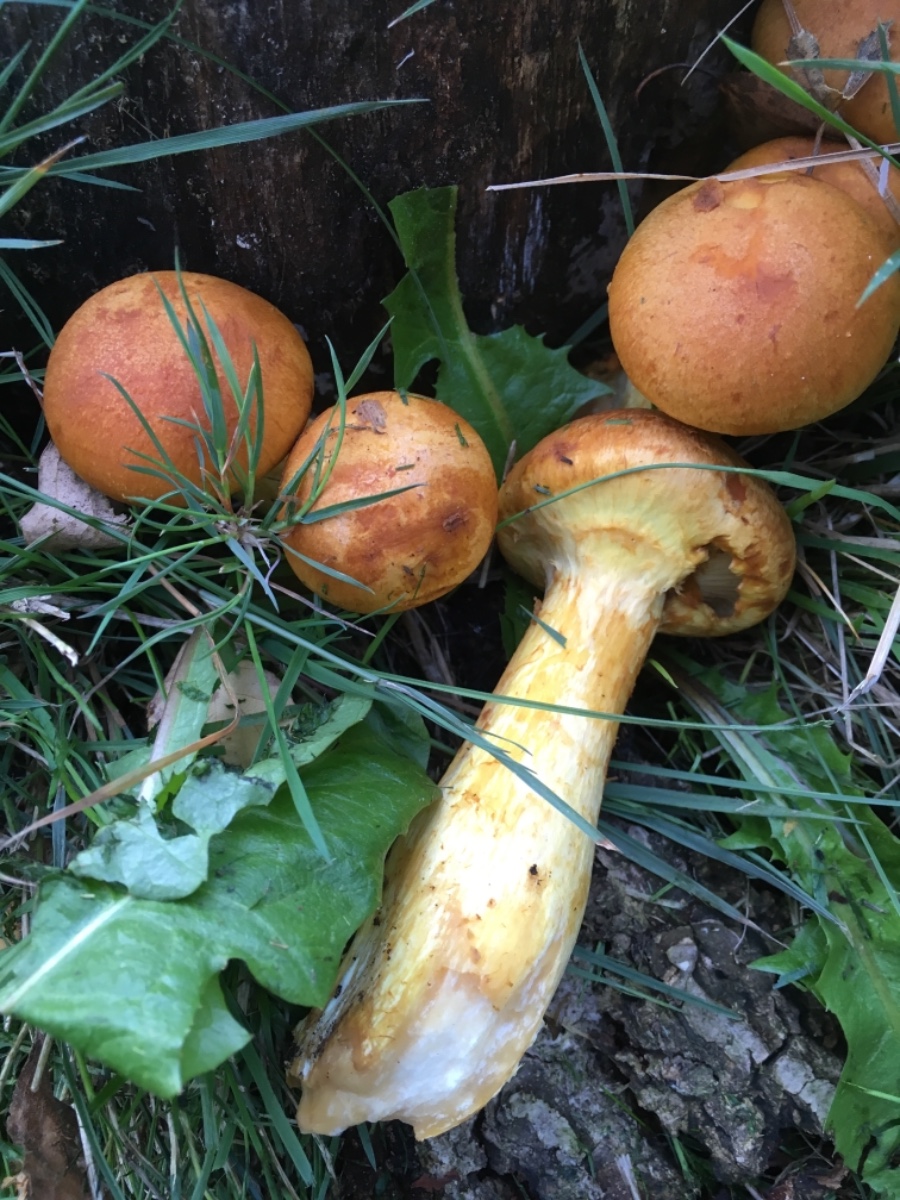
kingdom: Fungi
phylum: Basidiomycota
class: Agaricomycetes
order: Agaricales
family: Hymenogastraceae
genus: Gymnopilus
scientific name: Gymnopilus spectabilis
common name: fibret flammehat
